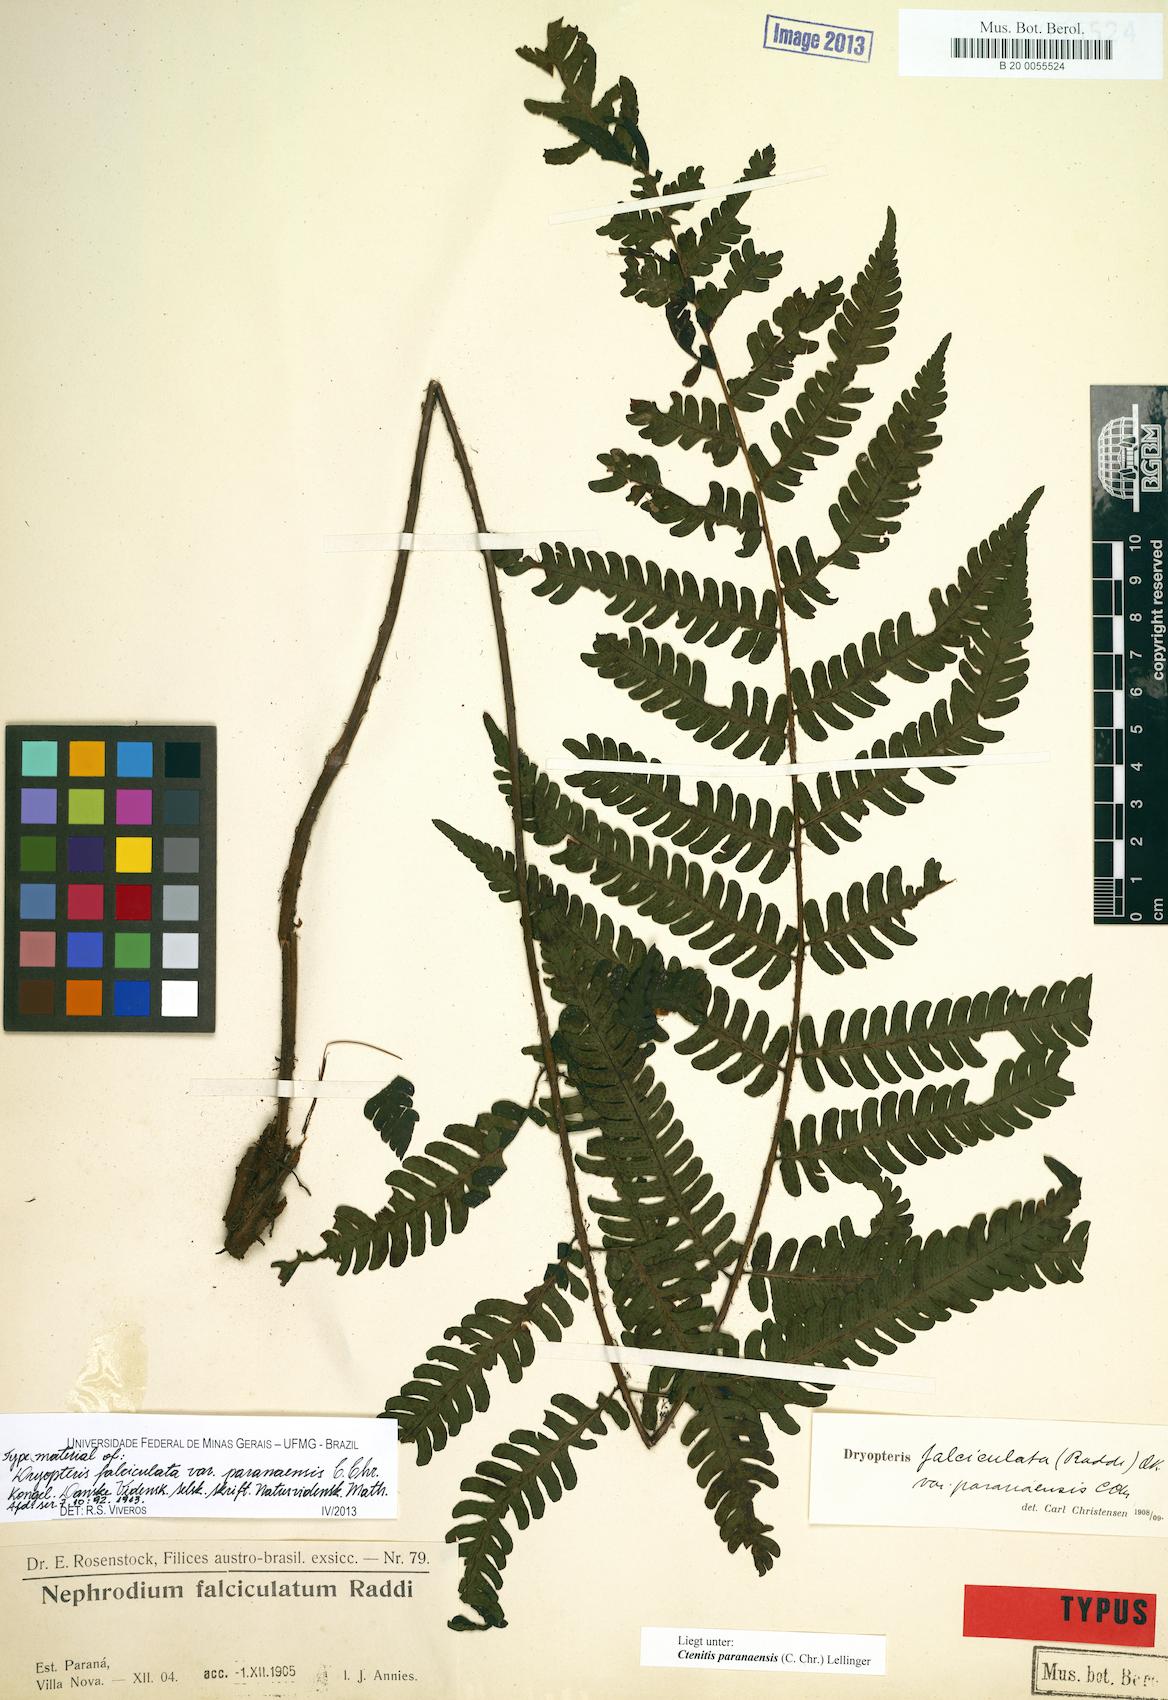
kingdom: Plantae
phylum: Tracheophyta
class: Polypodiopsida
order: Polypodiales
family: Dryopteridaceae
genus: Ctenitis
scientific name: Ctenitis paranaensis
